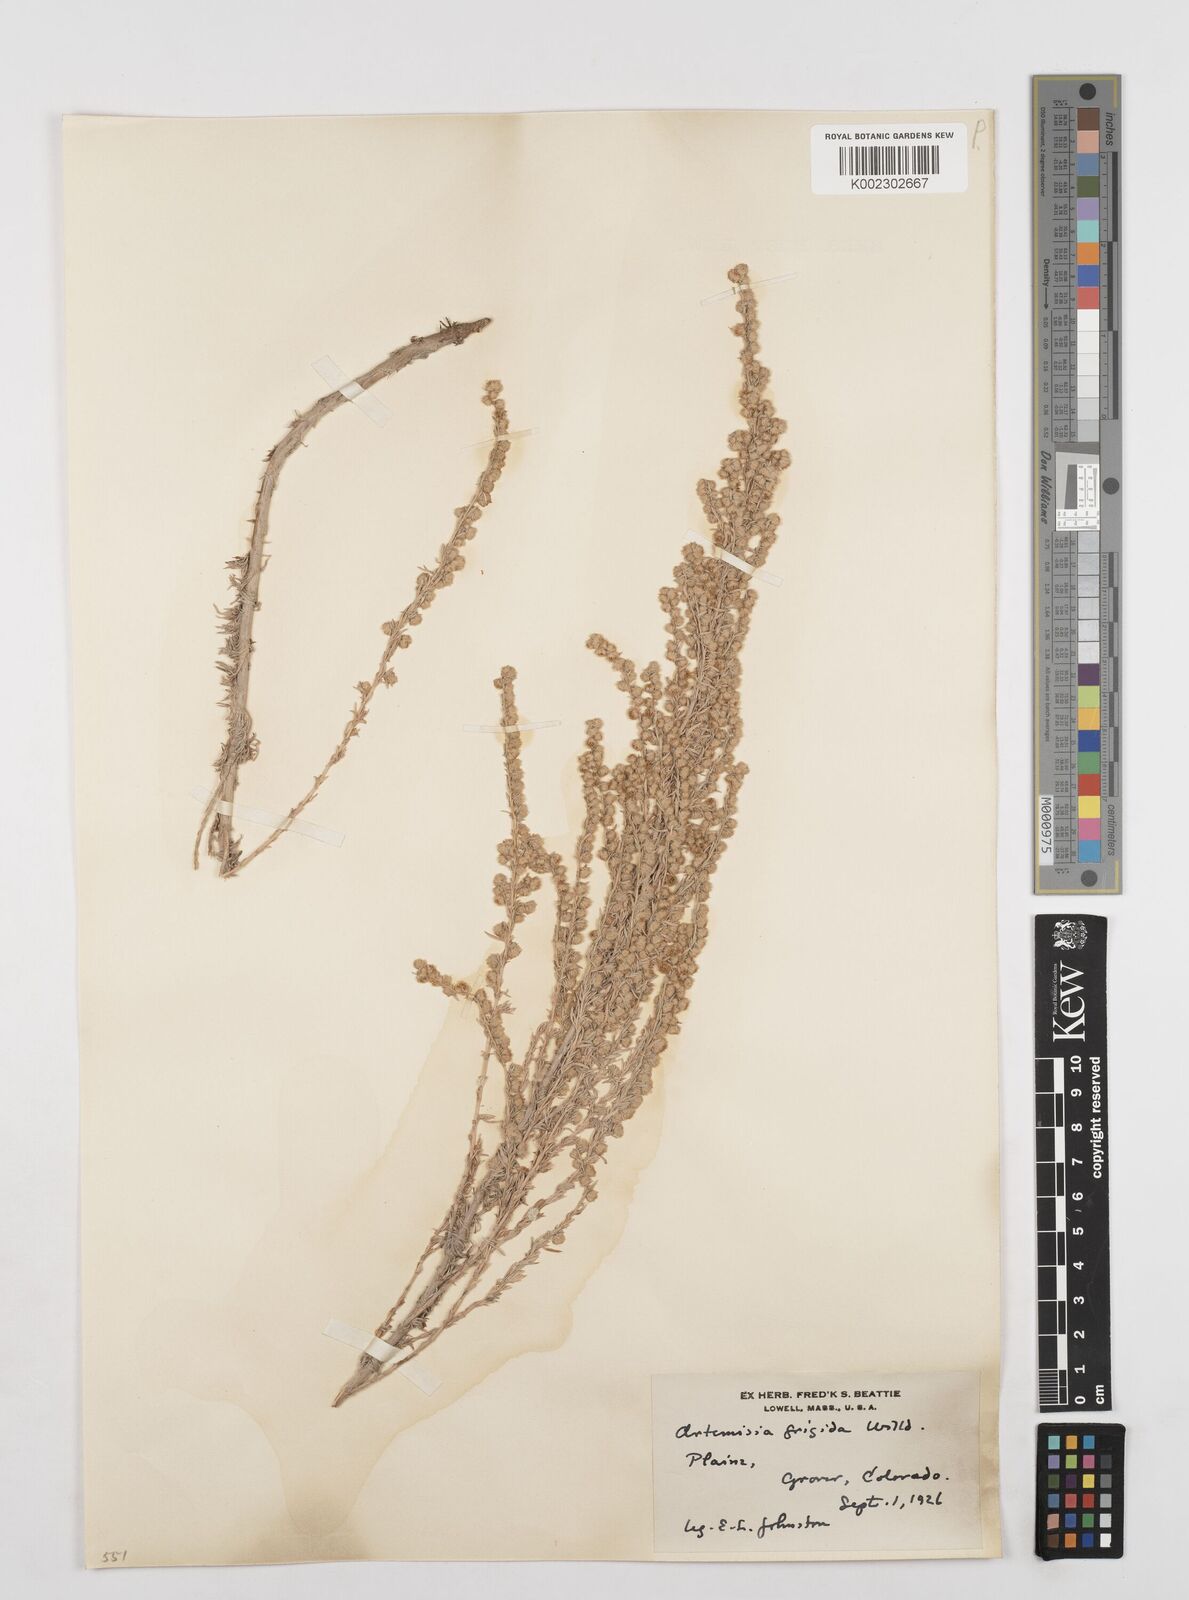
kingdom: Plantae
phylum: Tracheophyta
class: Magnoliopsida
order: Asterales
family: Asteraceae
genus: Artemisia
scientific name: Artemisia frigida
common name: Prairie sagewort
